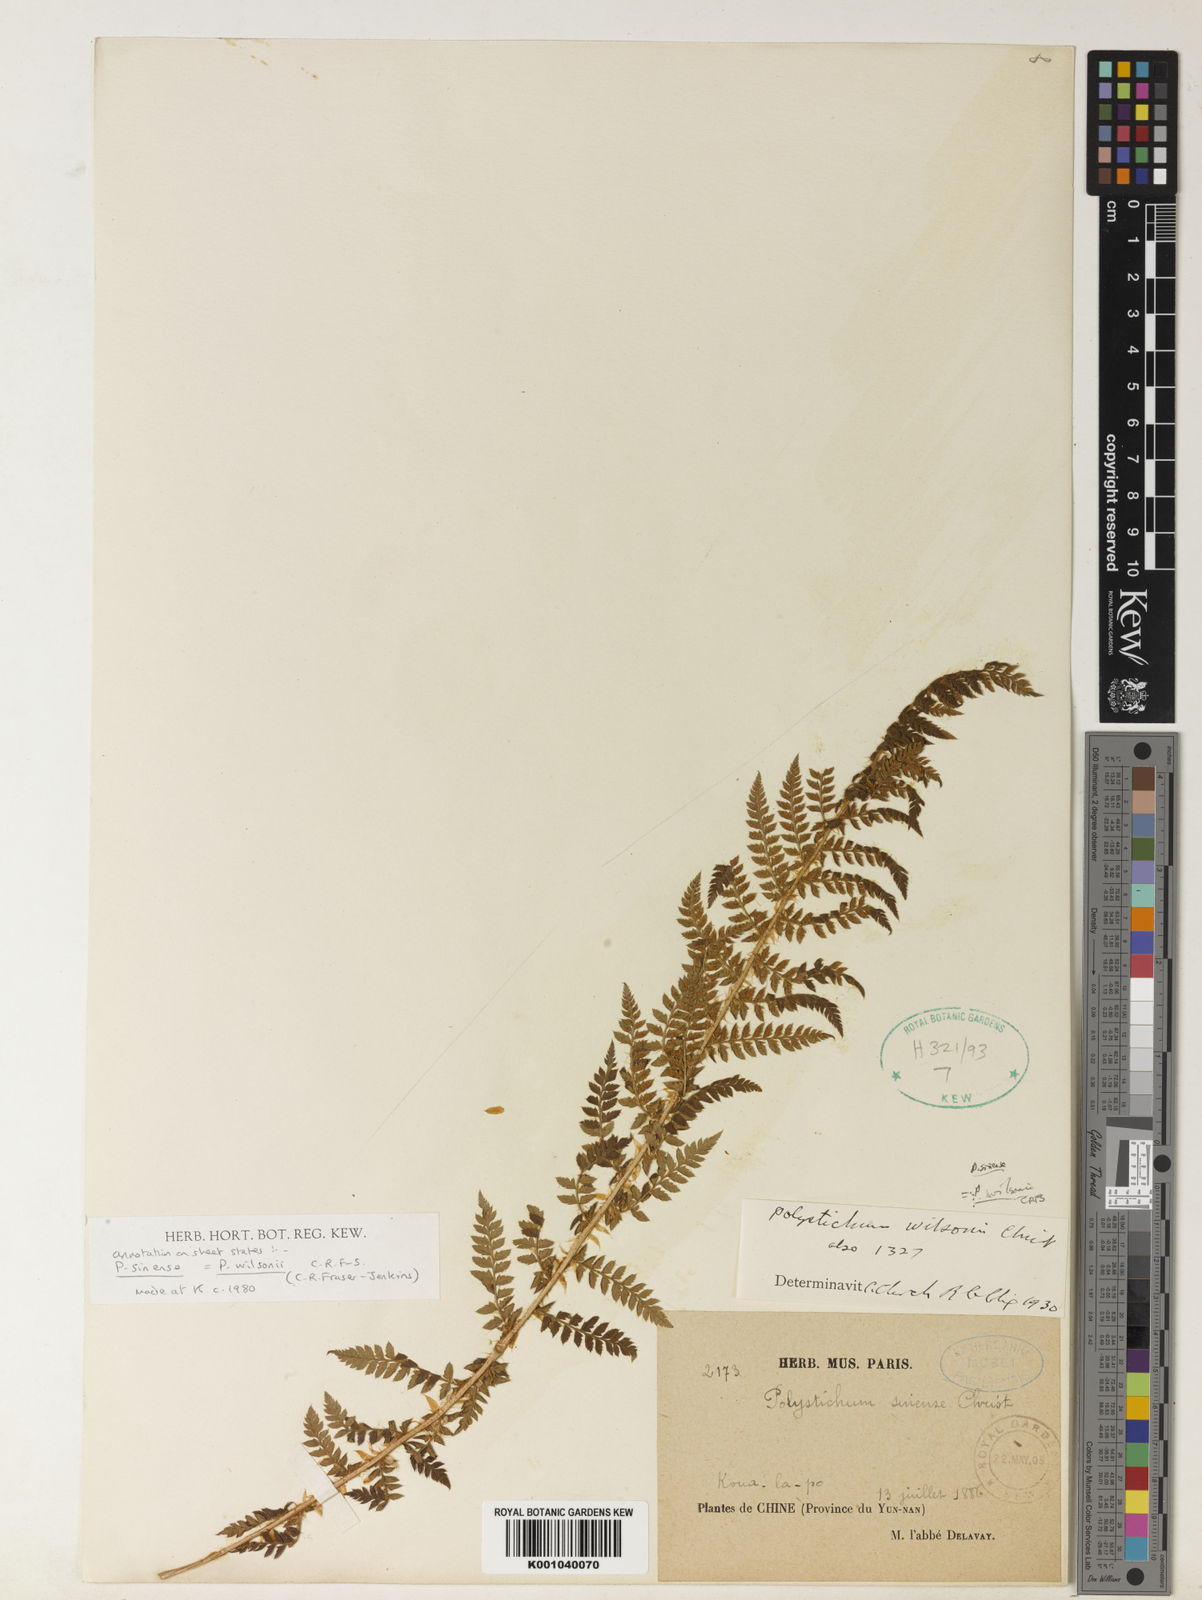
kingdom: Plantae
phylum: Tracheophyta
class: Polypodiopsida
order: Polypodiales
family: Dryopteridaceae
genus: Polystichum
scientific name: Polystichum sinense
